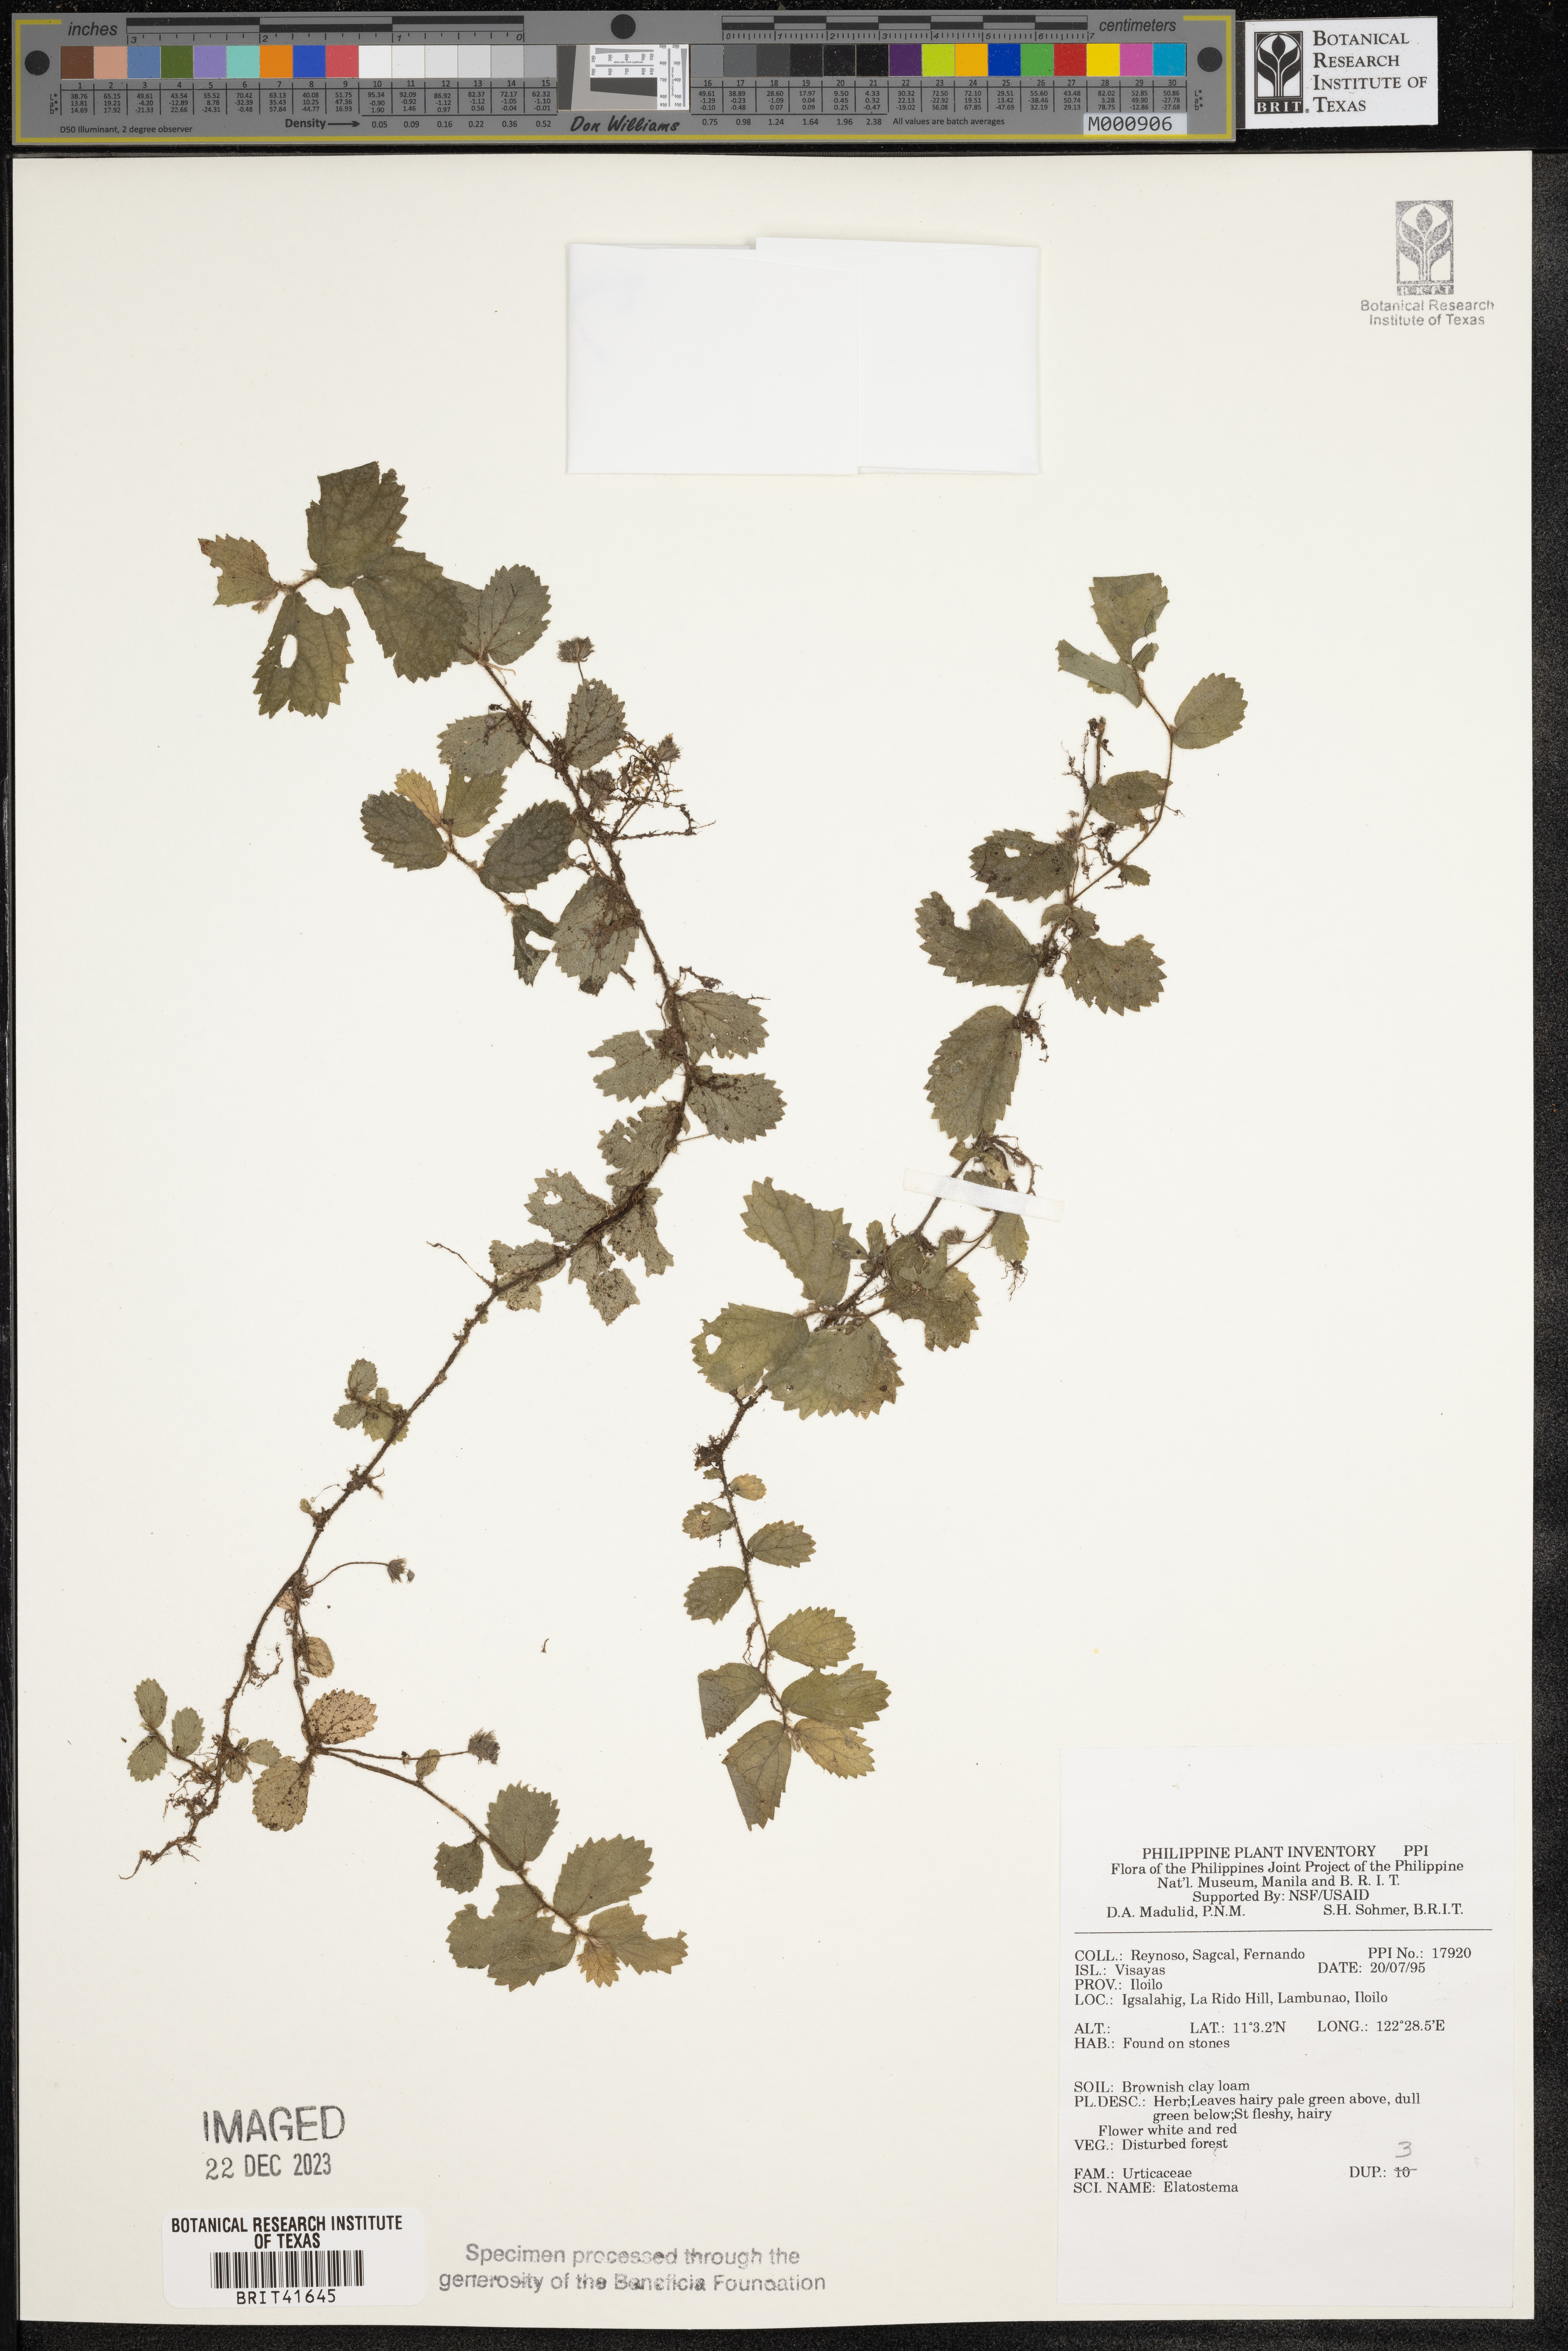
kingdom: Plantae
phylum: Tracheophyta
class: Magnoliopsida
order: Rosales
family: Urticaceae
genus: Elatostema
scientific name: Elatostema
